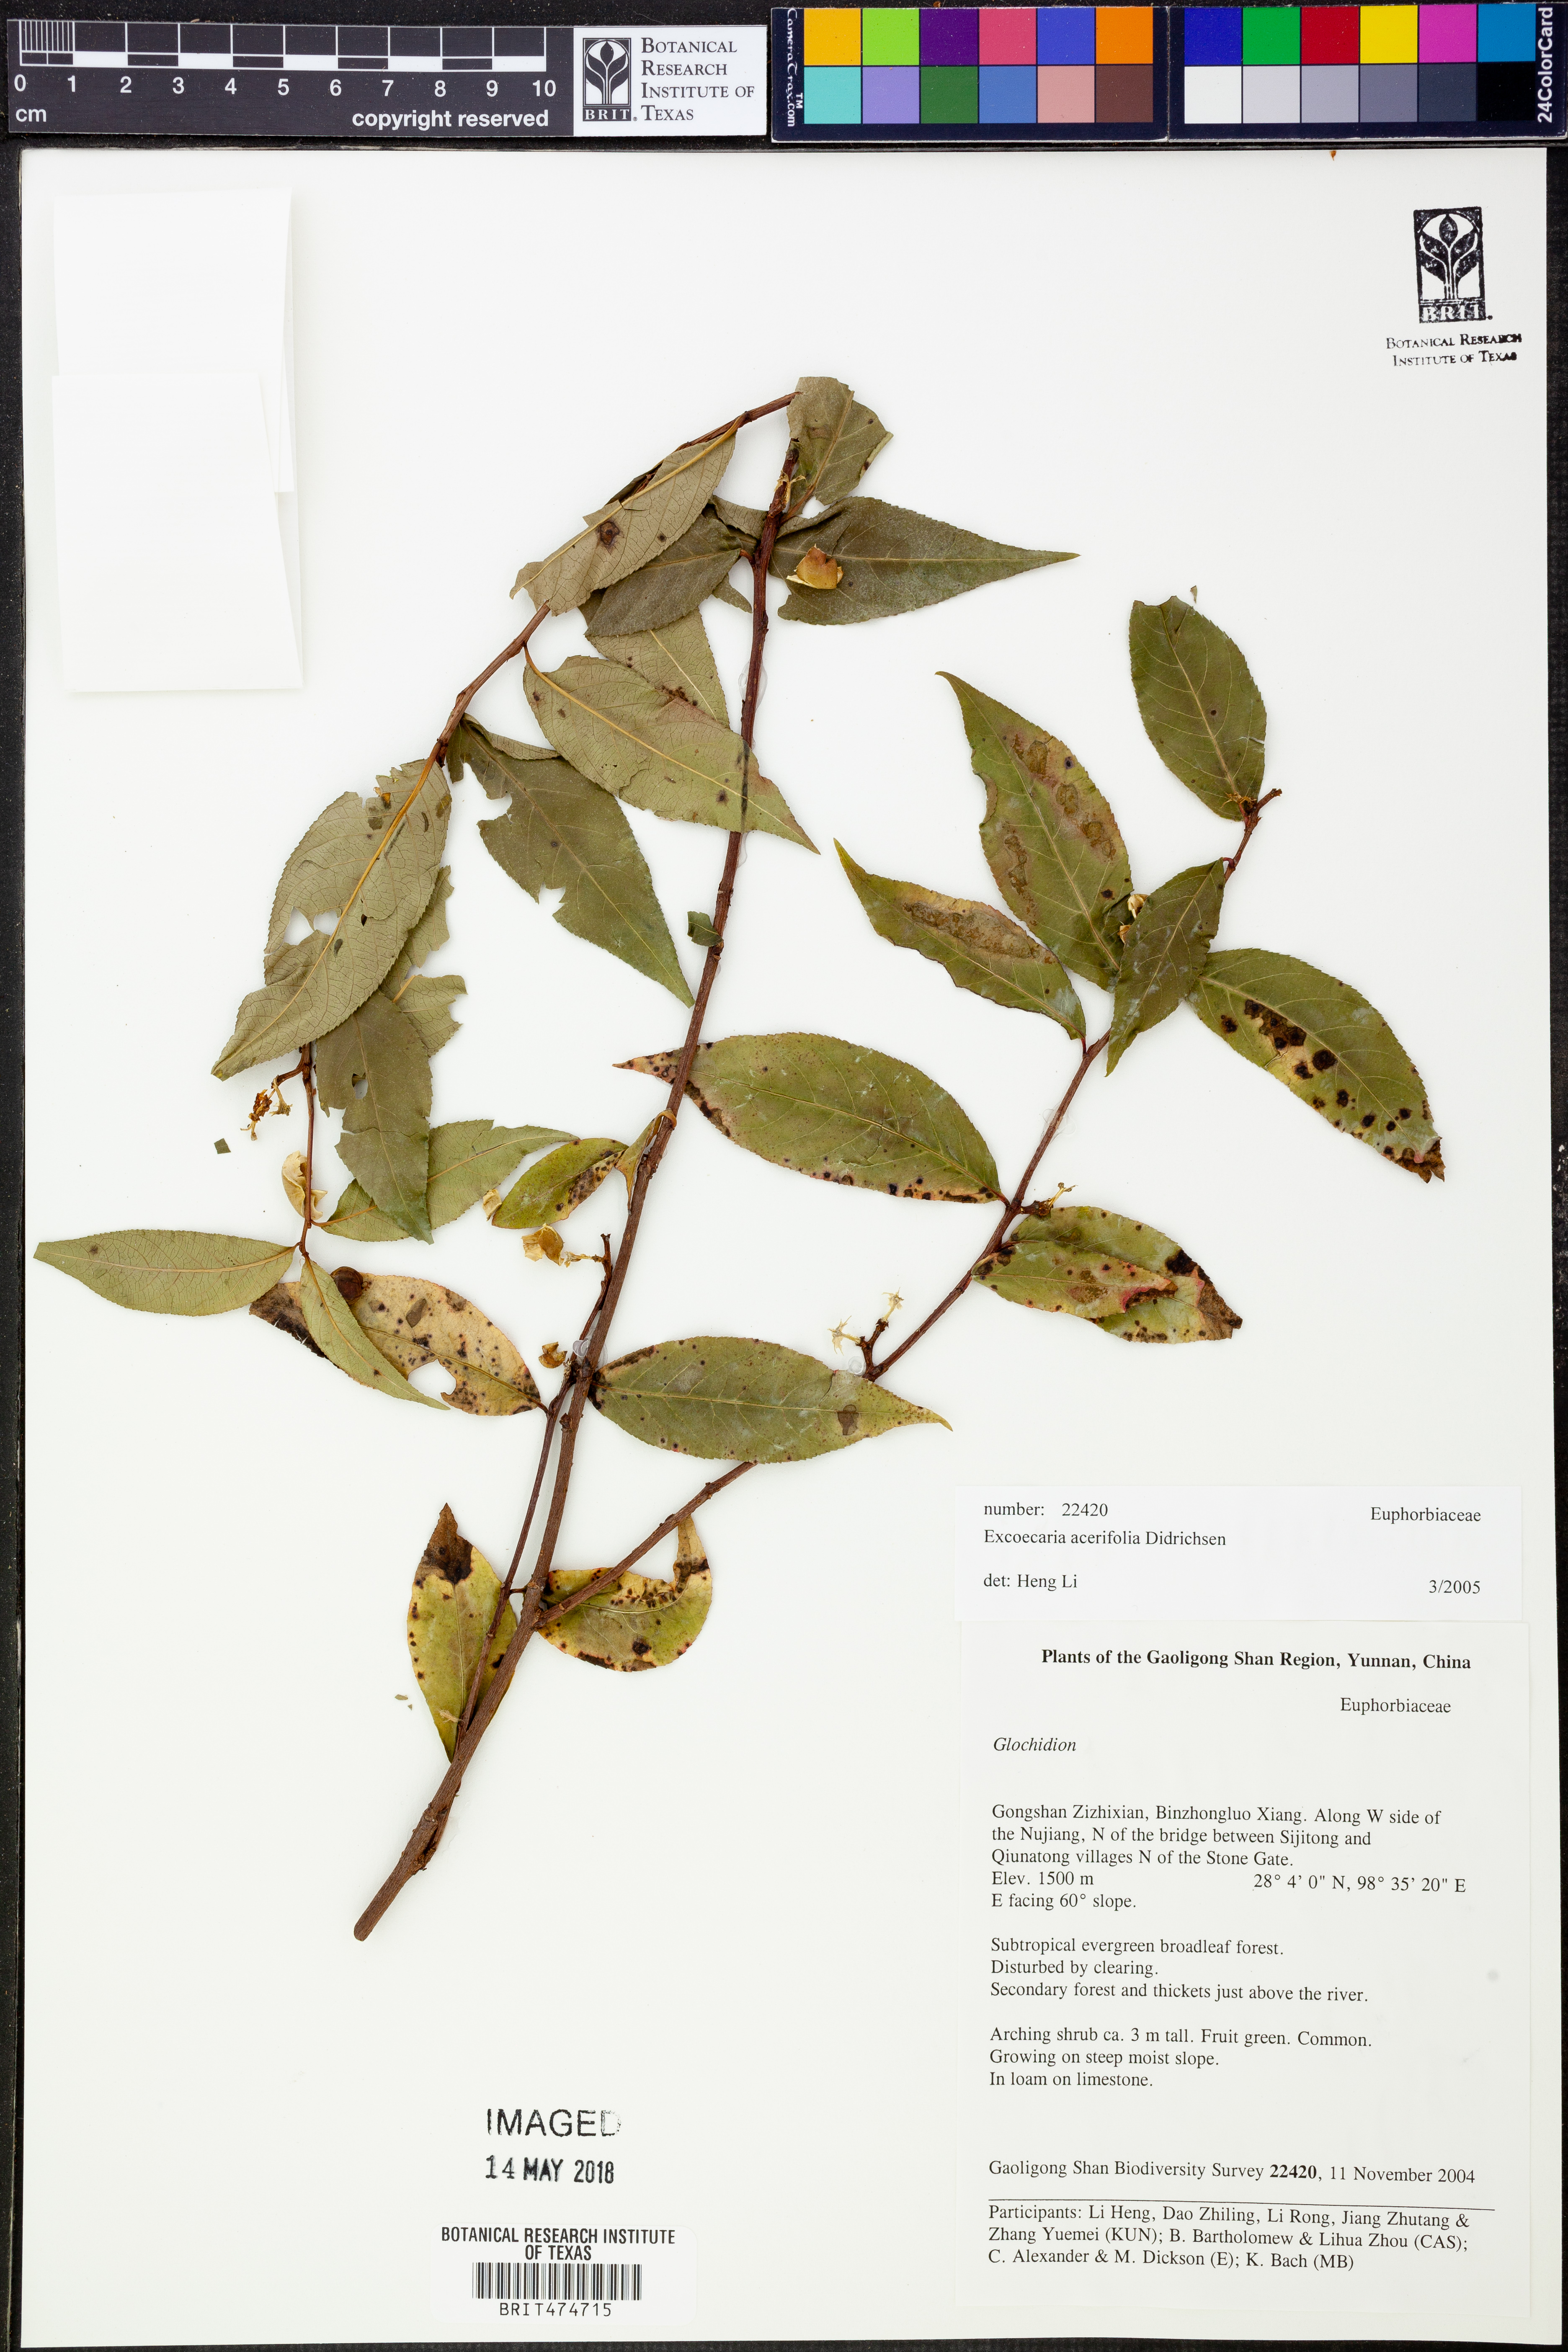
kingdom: Plantae
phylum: Tracheophyta
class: Magnoliopsida
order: Ericales
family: Primulaceae
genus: Myrsine
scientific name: Myrsine semiserrata
